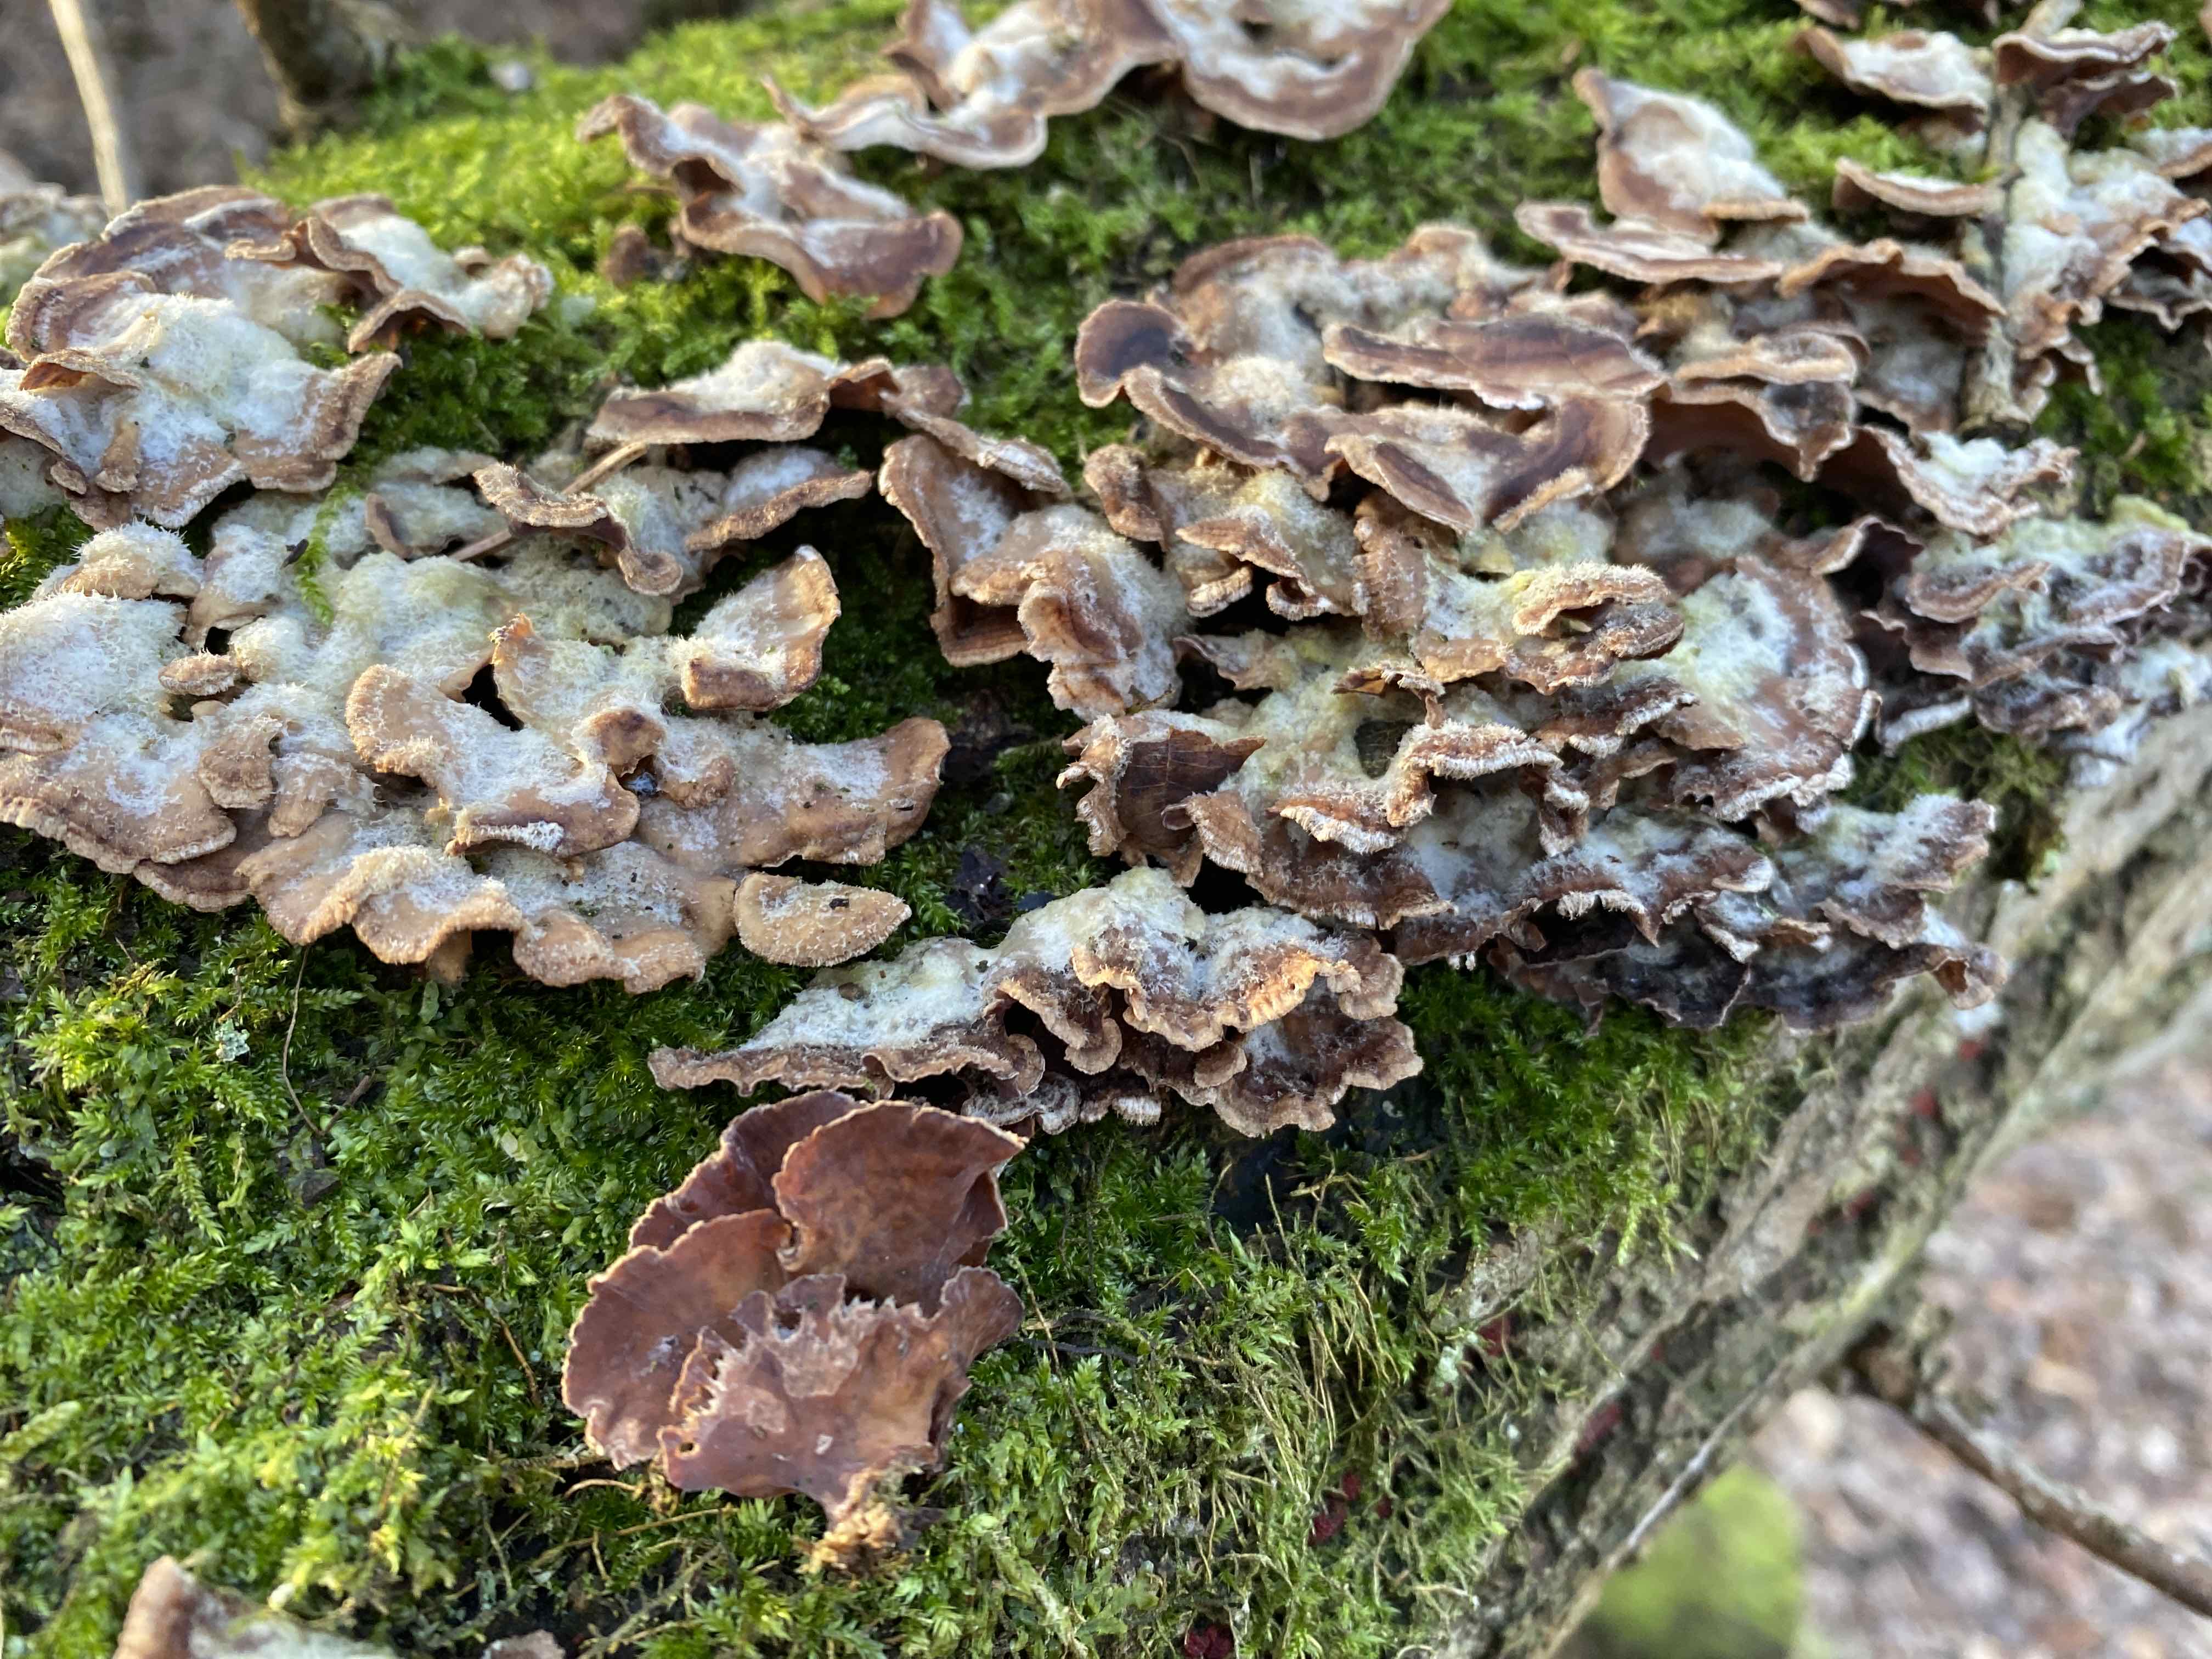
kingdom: Fungi
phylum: Basidiomycota
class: Agaricomycetes
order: Agaricales
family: Cyphellaceae
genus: Chondrostereum
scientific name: Chondrostereum purpureum
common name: purpurlædersvamp
